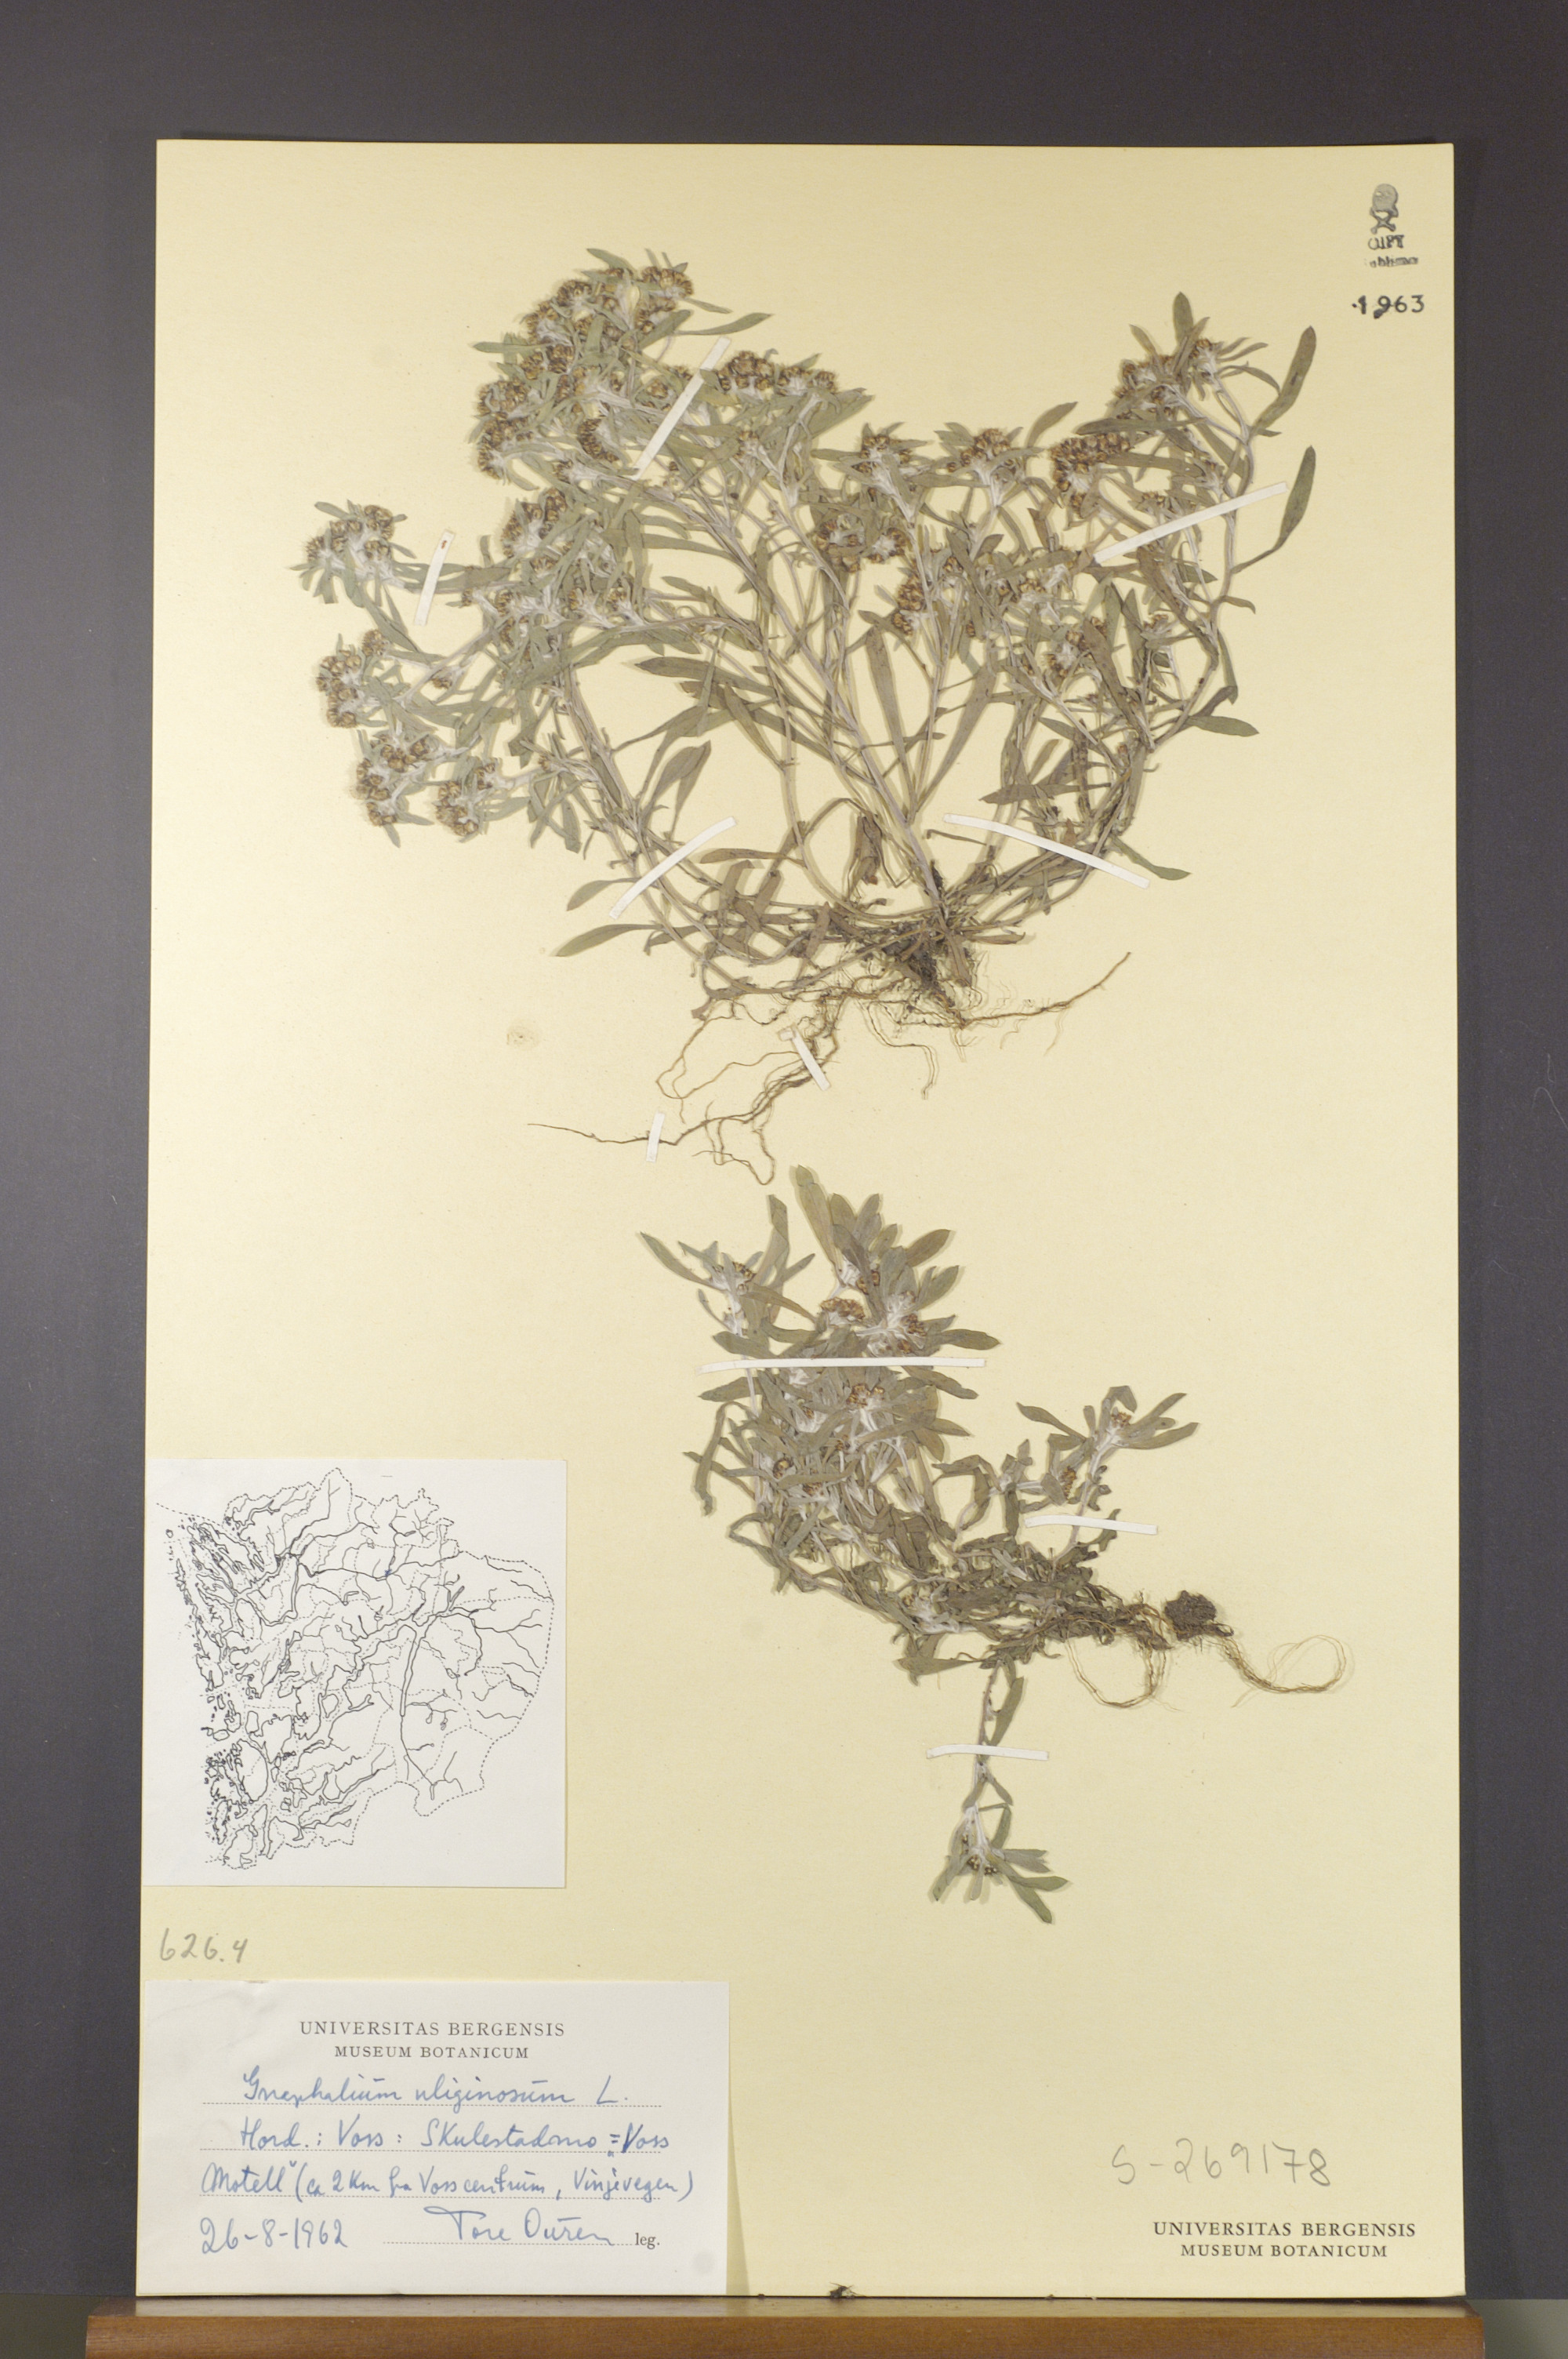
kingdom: Plantae
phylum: Tracheophyta
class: Magnoliopsida
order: Asterales
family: Asteraceae
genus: Gnaphalium
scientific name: Gnaphalium uliginosum
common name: Marsh cudweed
